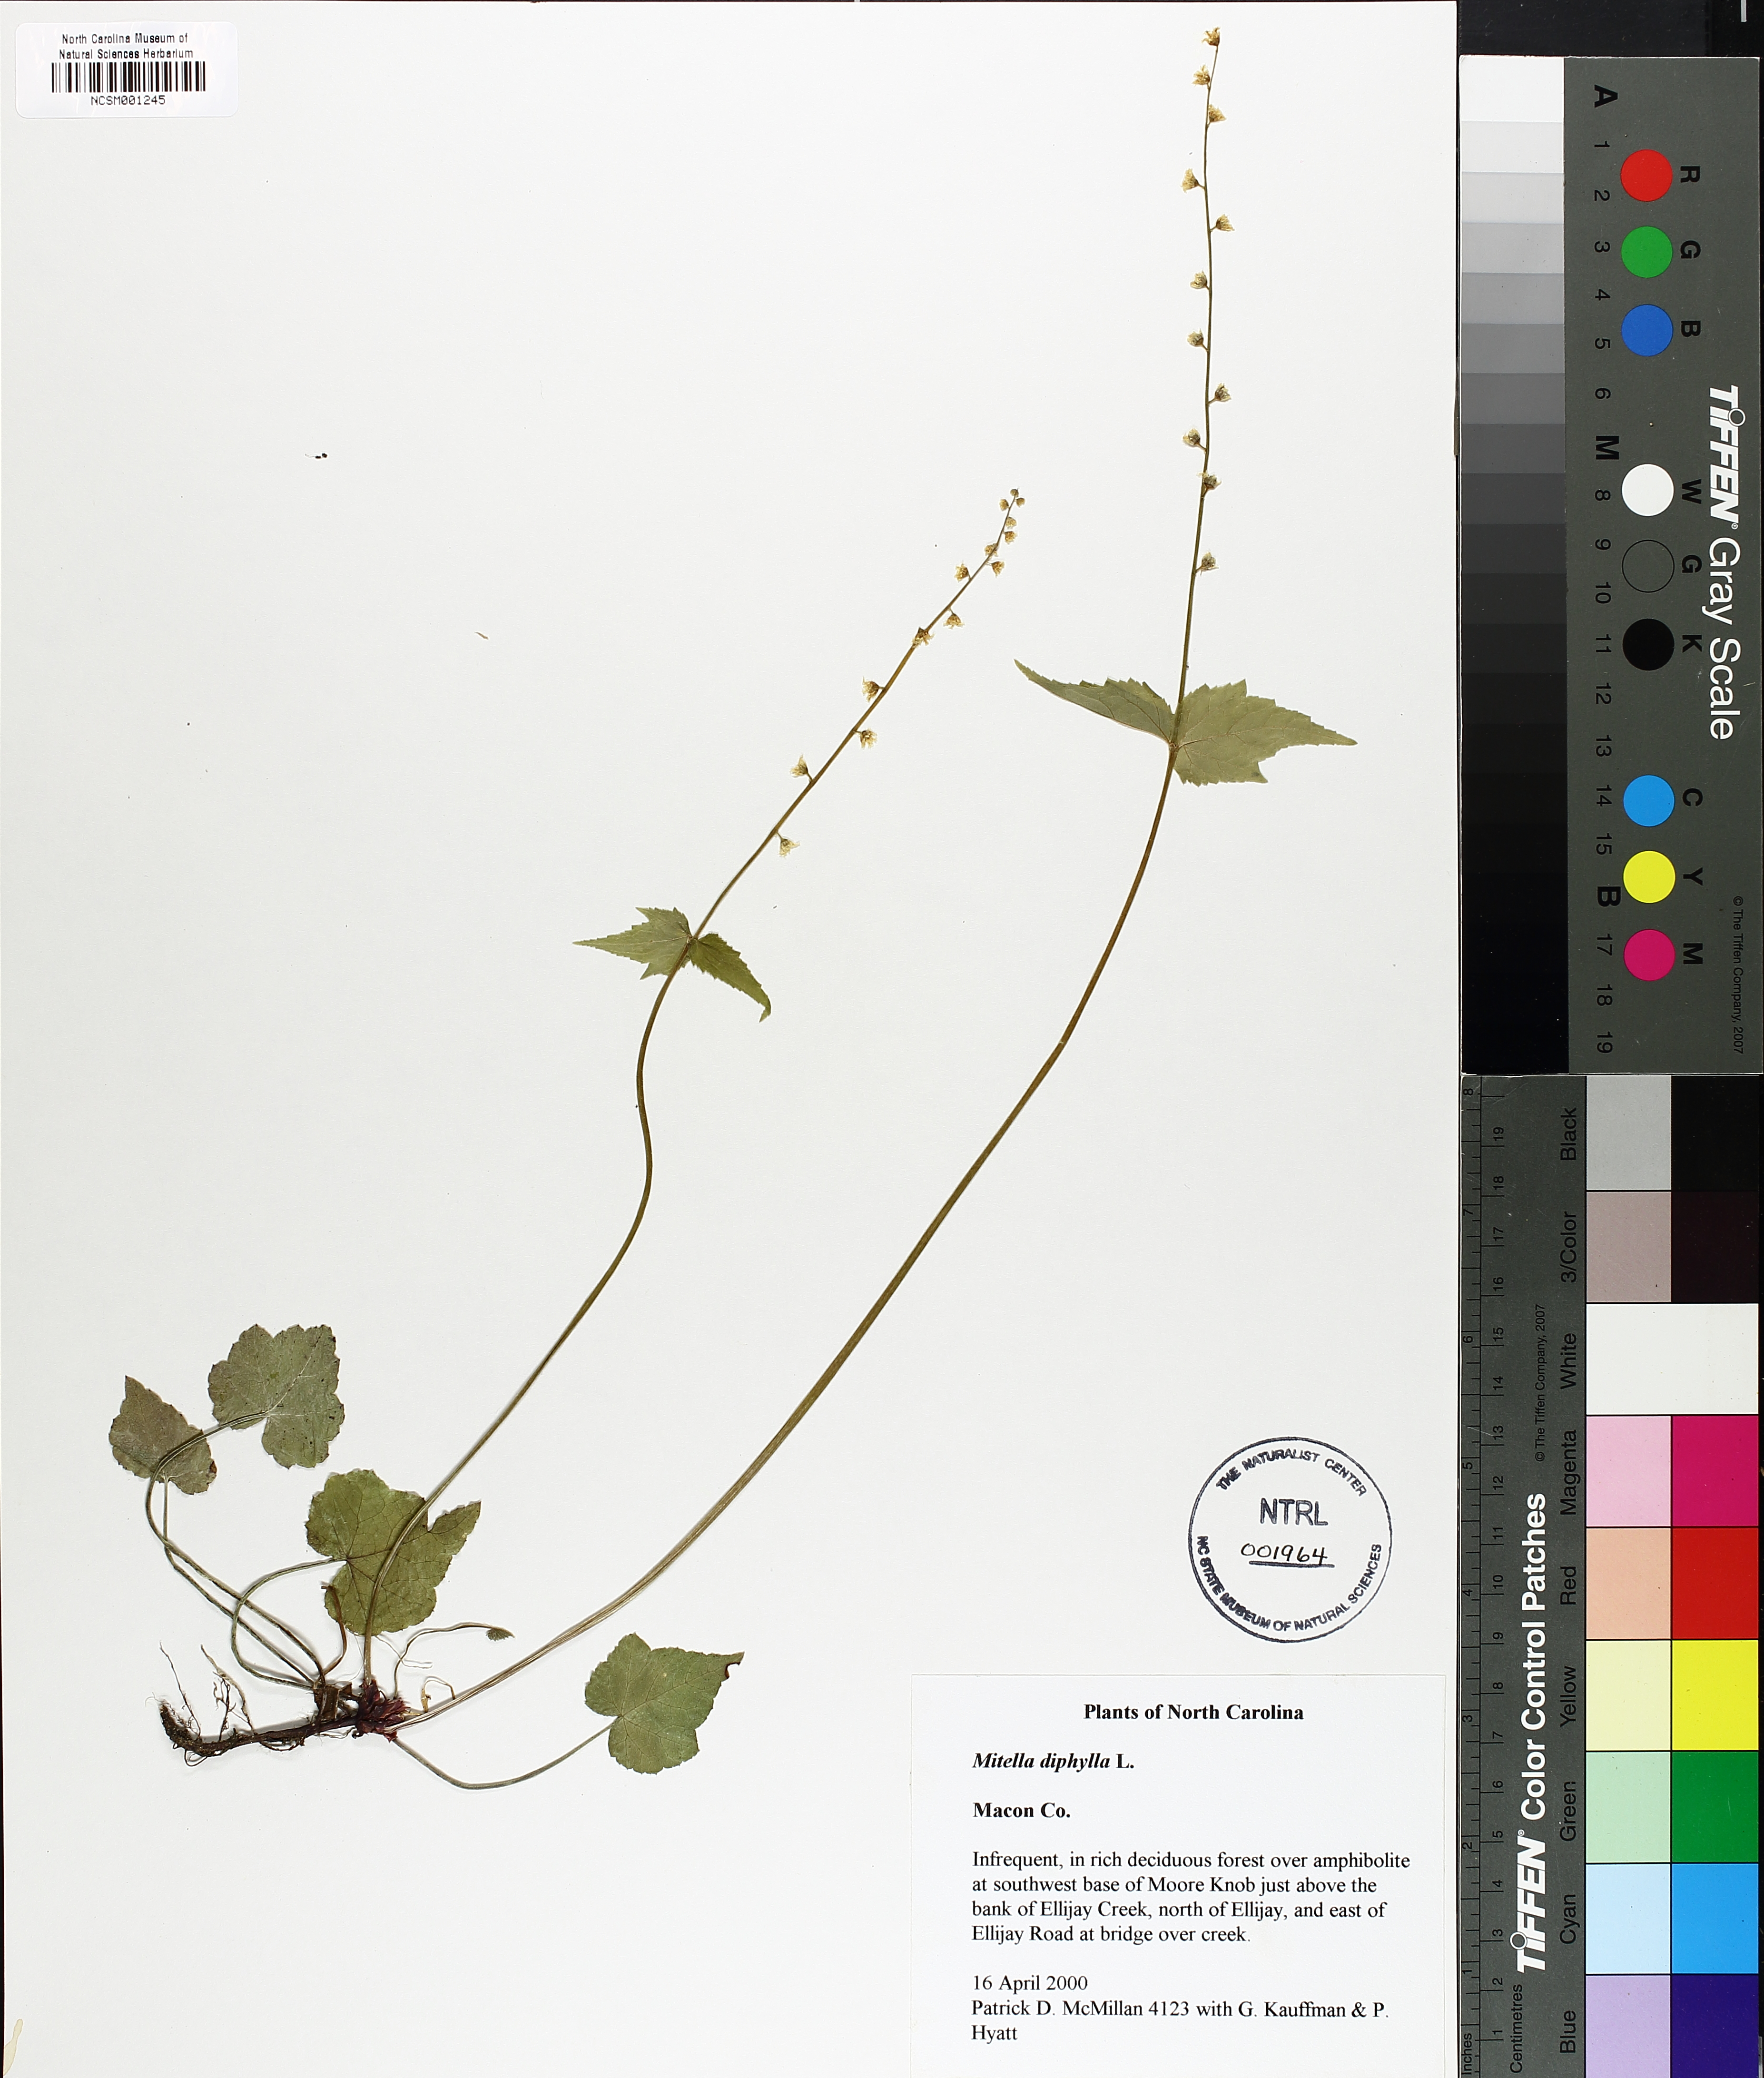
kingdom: Plantae
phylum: Tracheophyta
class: Magnoliopsida
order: Saxifragales
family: Saxifragaceae
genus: Mitella
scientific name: Mitella diphylla
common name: Coolwort
